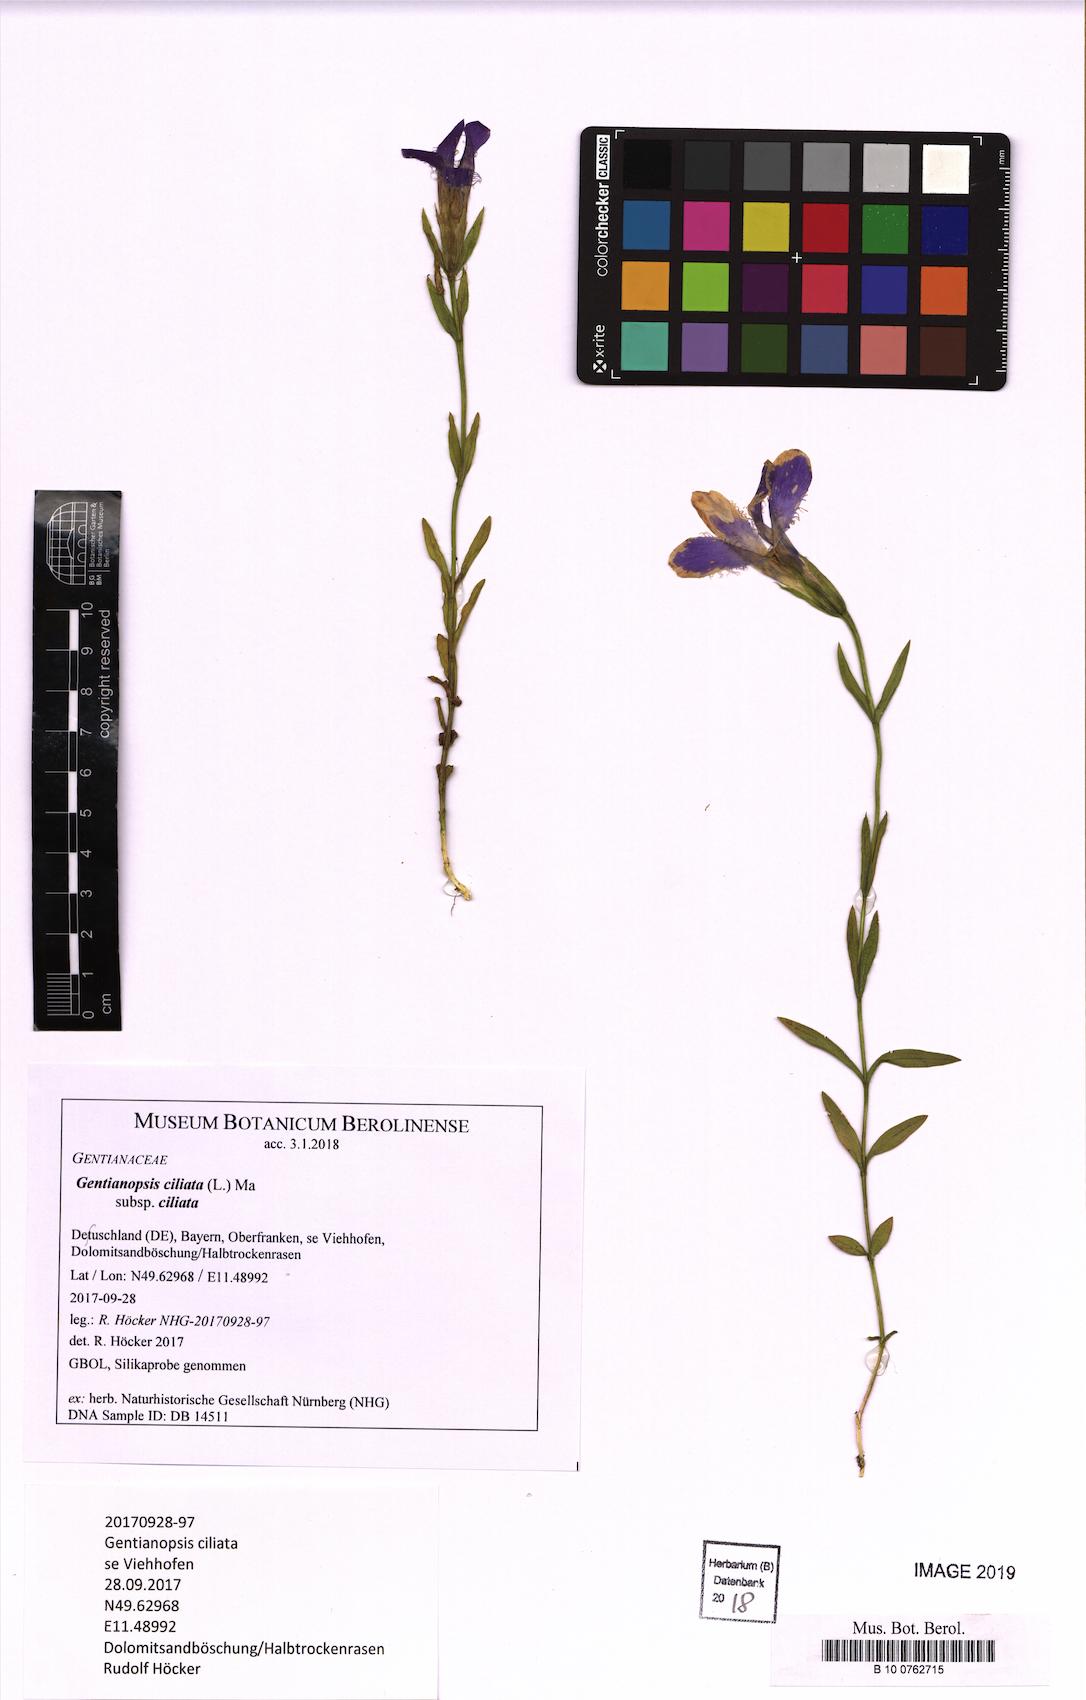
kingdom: Plantae
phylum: Tracheophyta
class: Magnoliopsida
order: Gentianales
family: Gentianaceae
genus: Gentianopsis
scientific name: Gentianopsis ciliata
